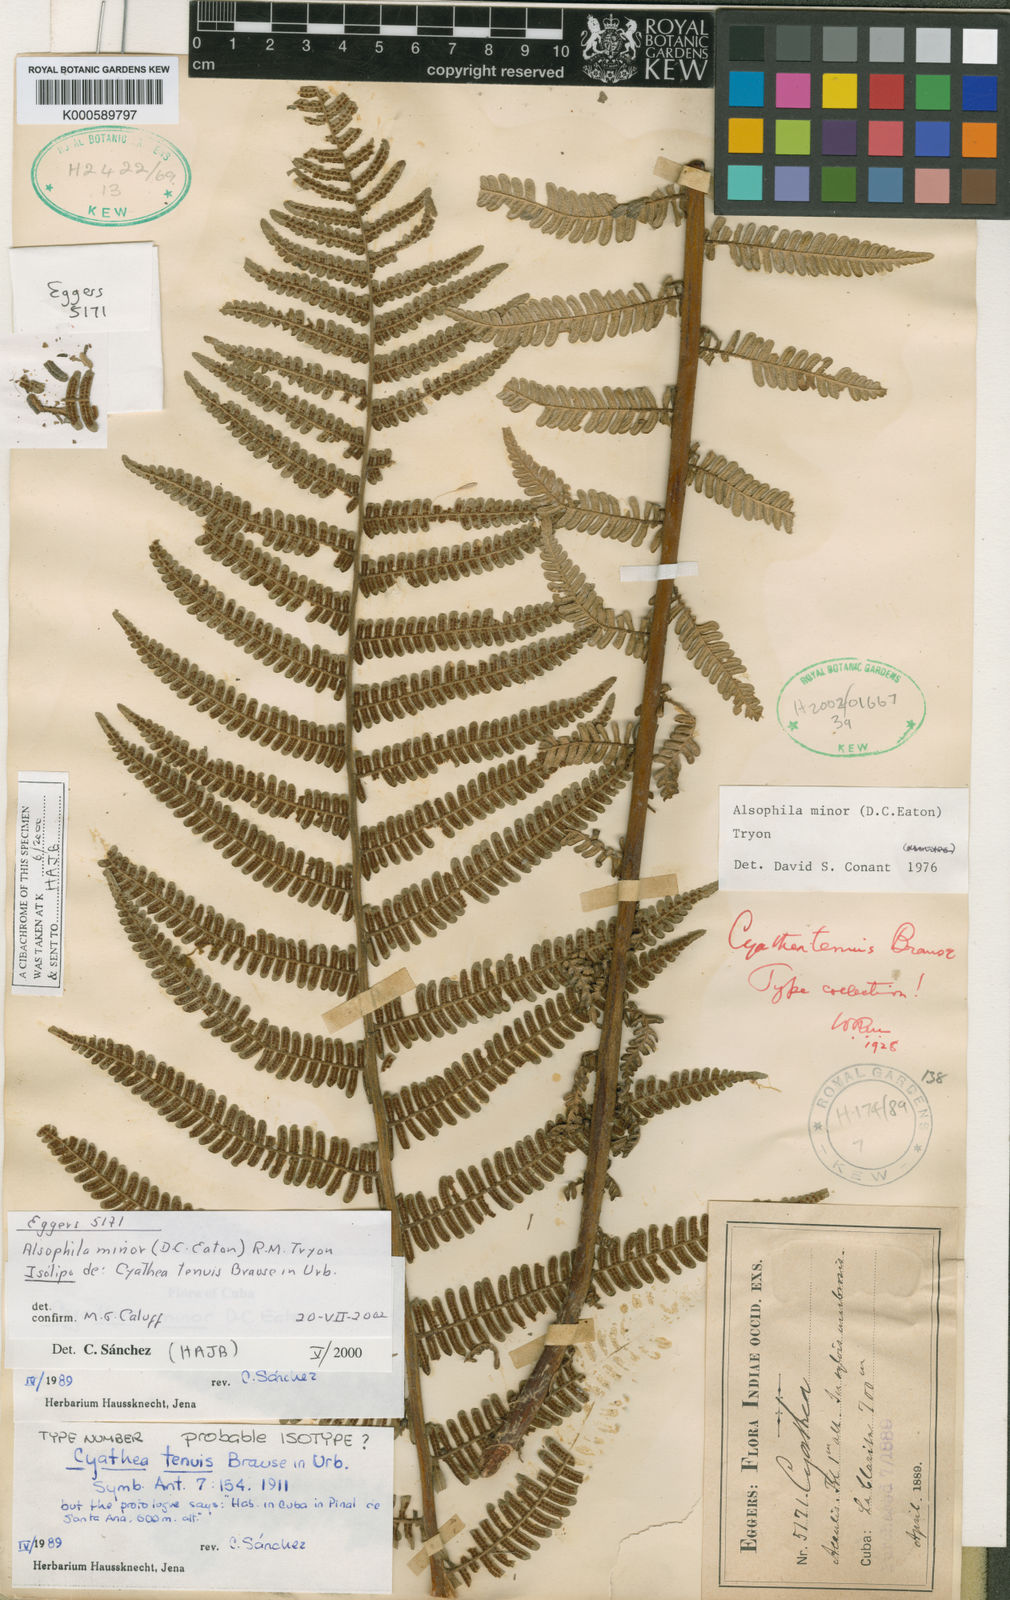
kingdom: Plantae
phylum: Tracheophyta
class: Polypodiopsida
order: Cyatheales
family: Cyatheaceae
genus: Alsophila
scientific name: Alsophila minor
